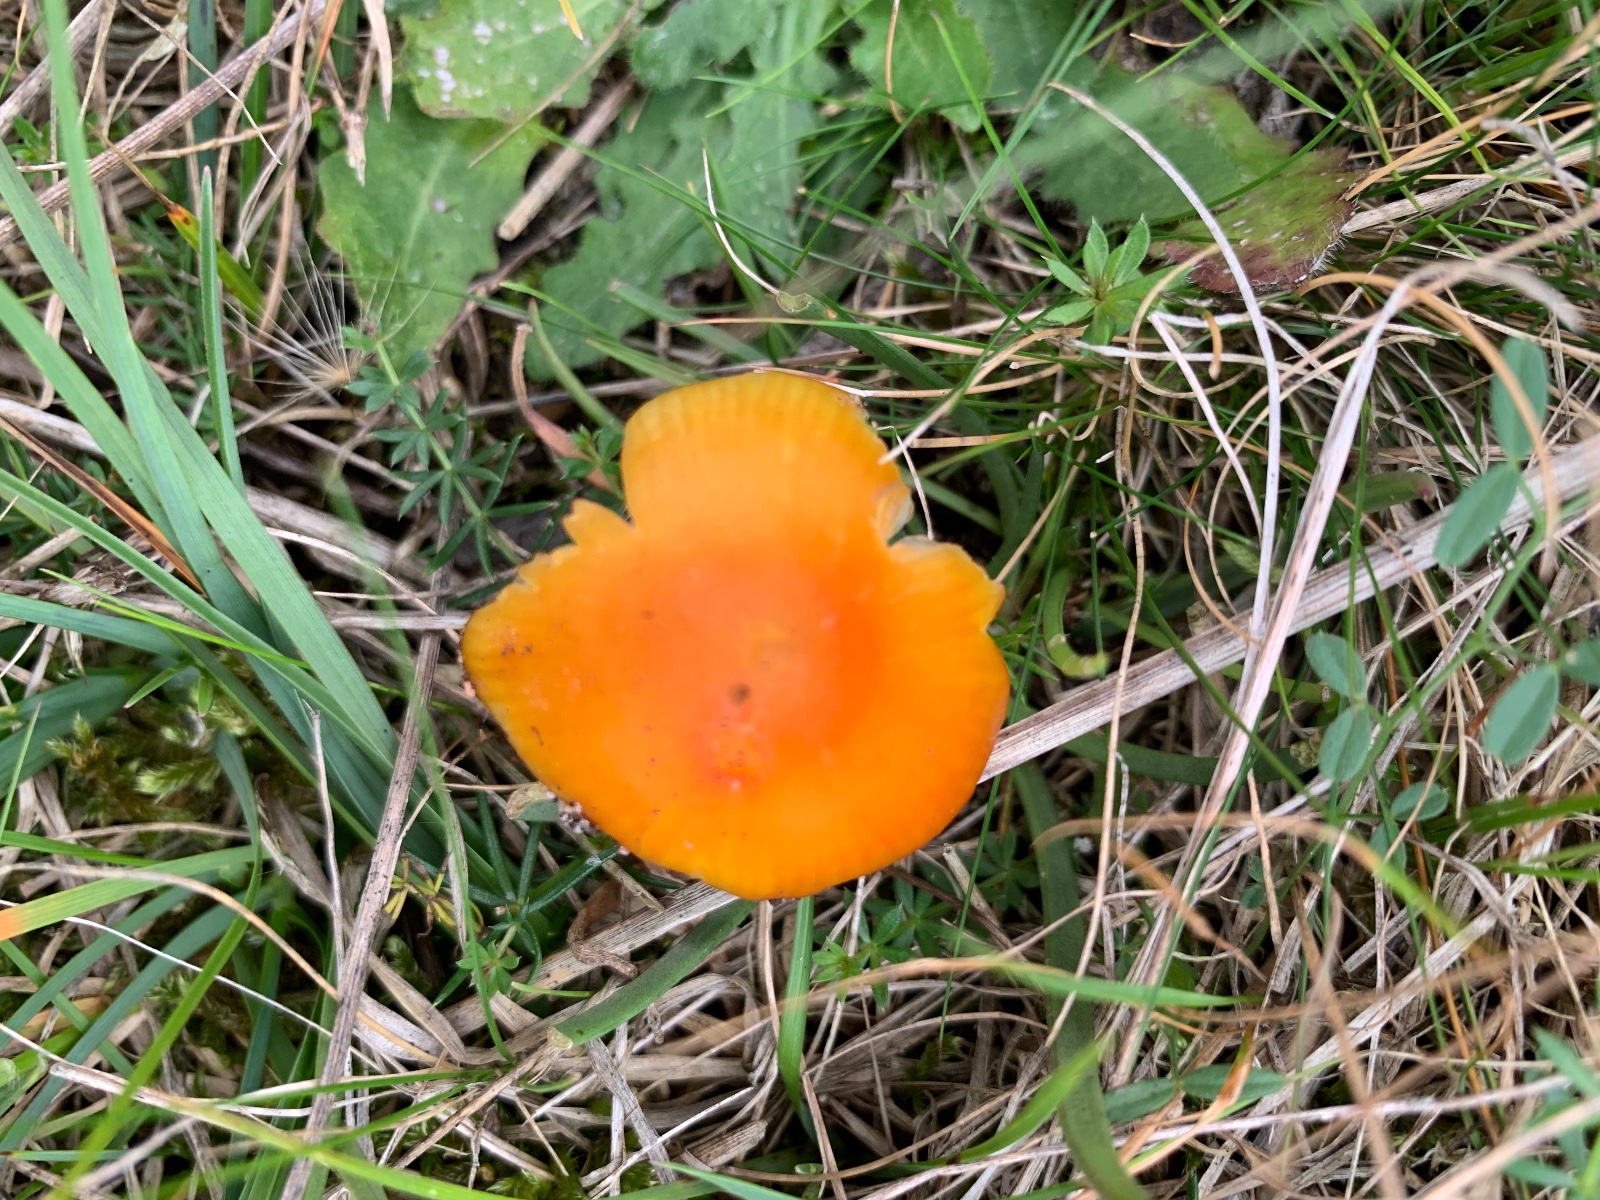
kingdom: Fungi
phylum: Basidiomycota
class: Agaricomycetes
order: Agaricales
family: Hygrophoraceae
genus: Hygrocybe
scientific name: Hygrocybe
